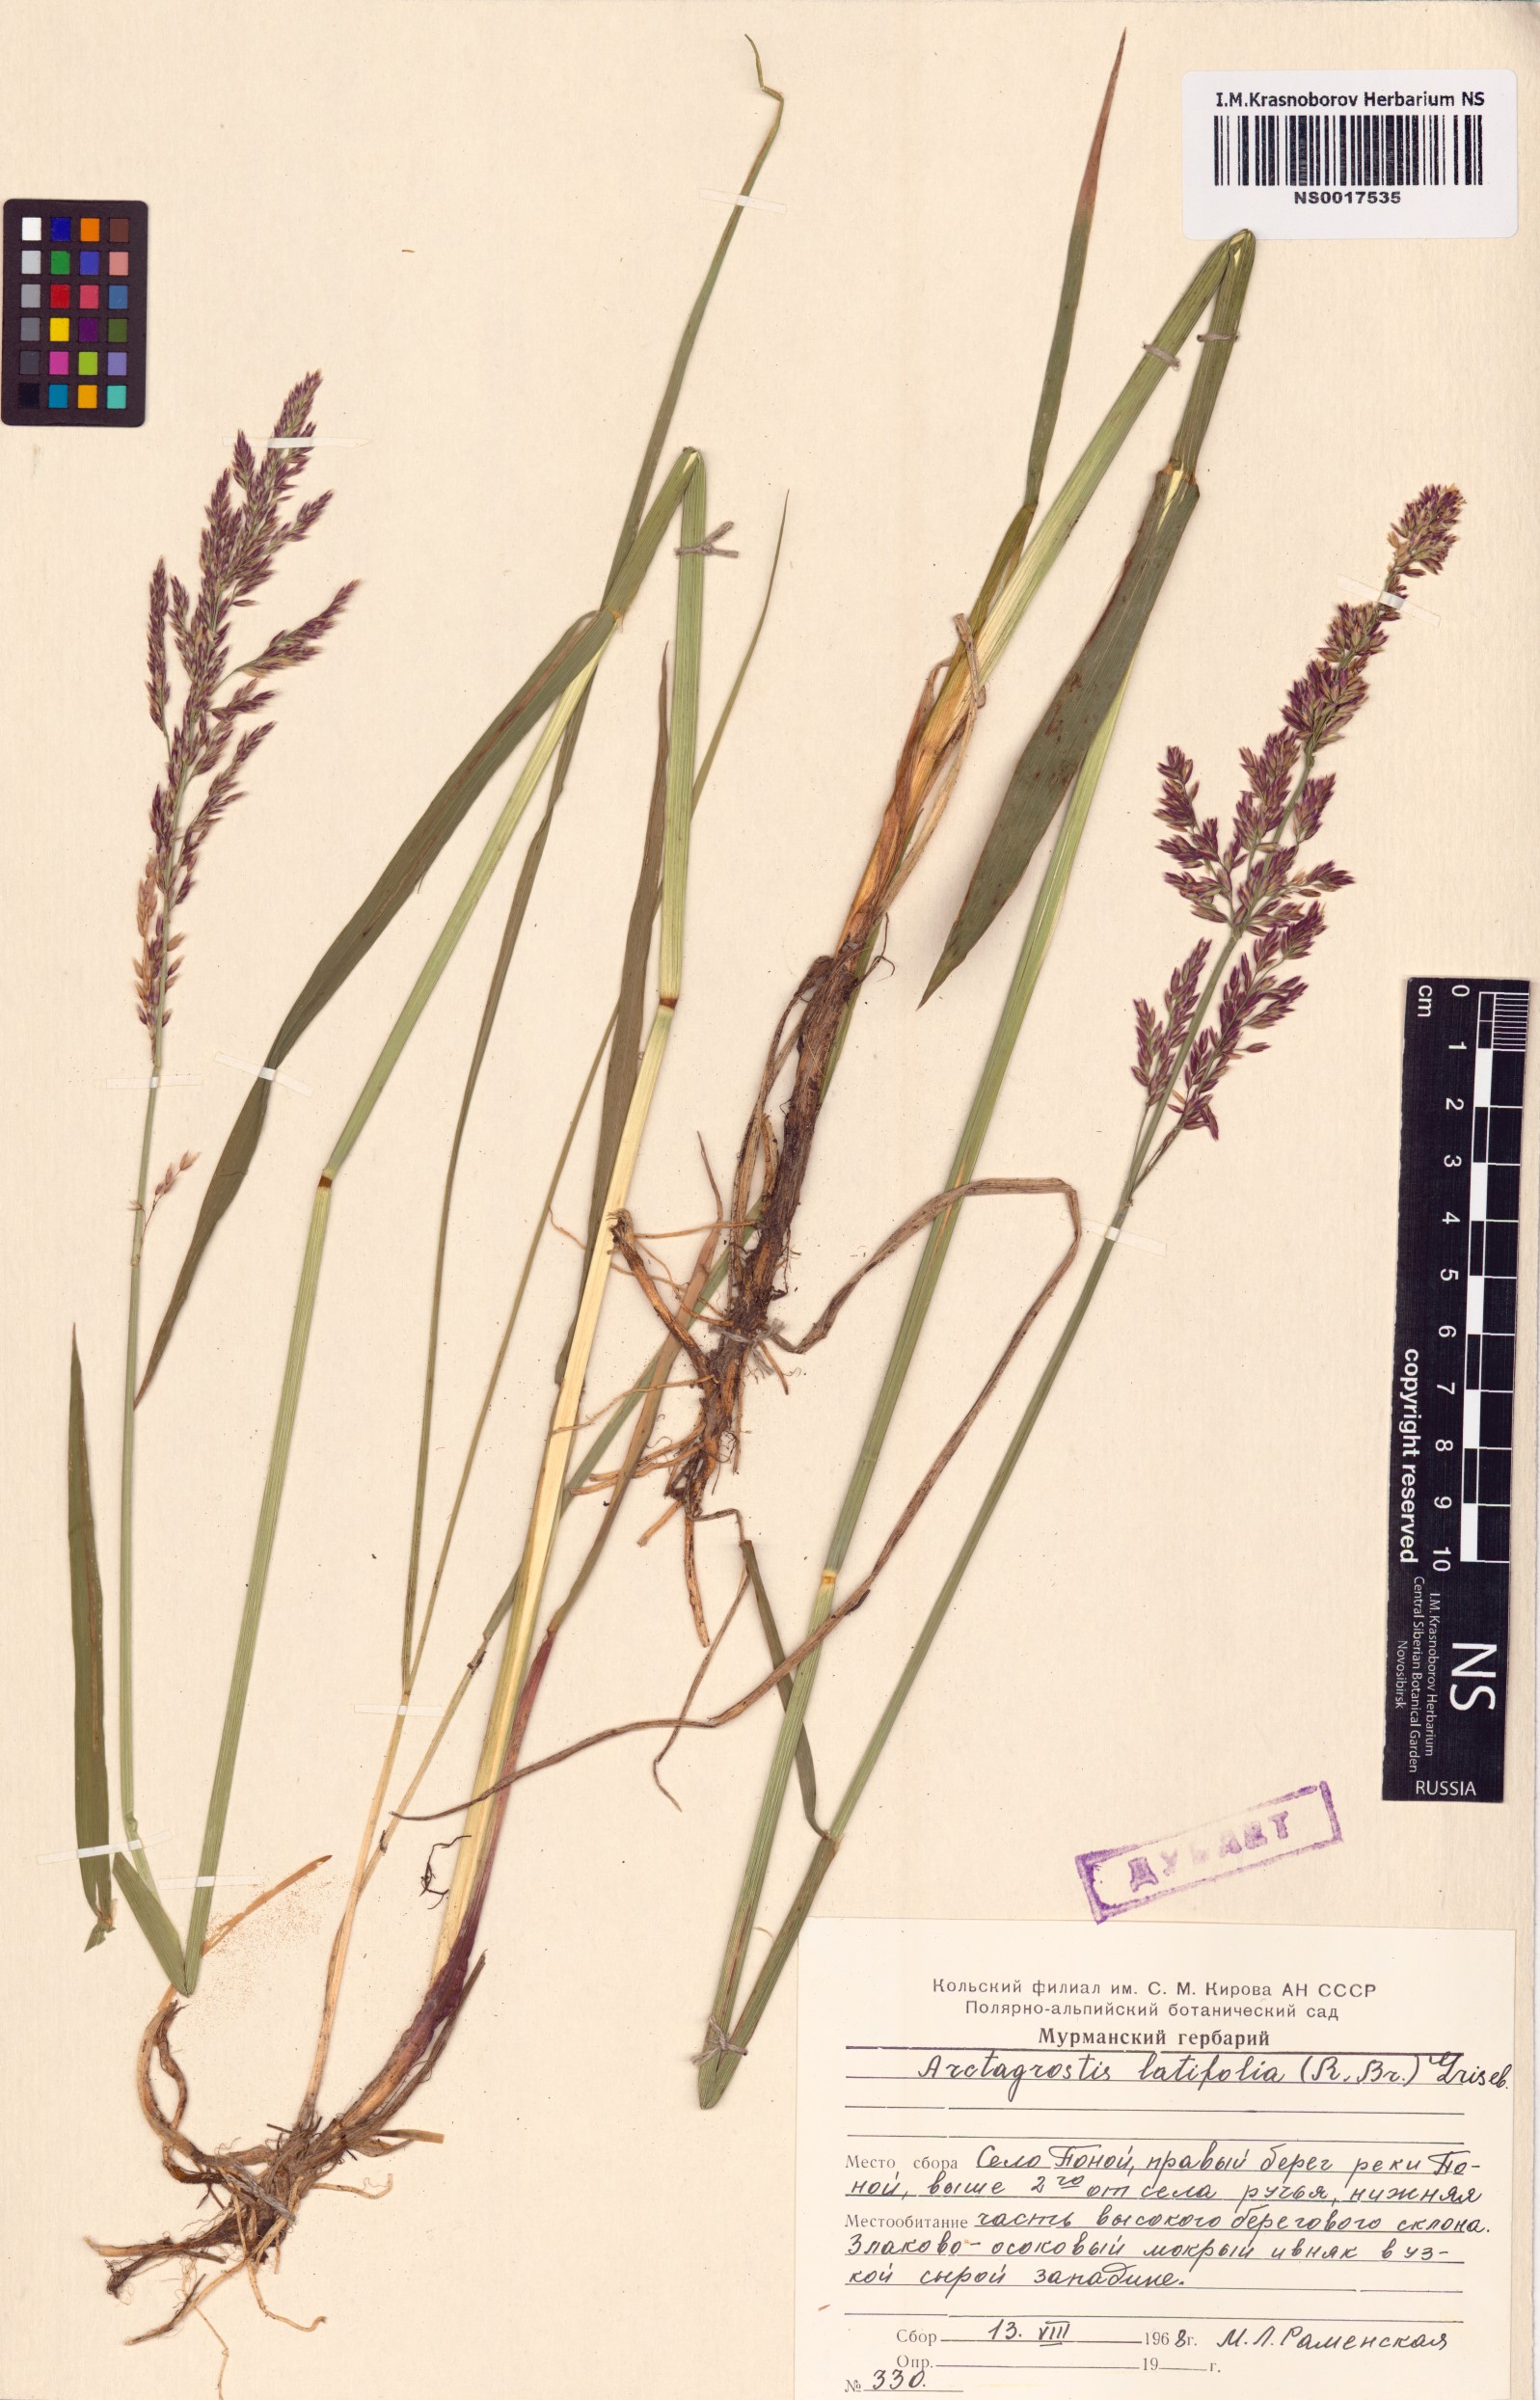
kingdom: Plantae
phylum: Tracheophyta
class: Liliopsida
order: Poales
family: Poaceae
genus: Arctagrostis
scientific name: Arctagrostis latifolia
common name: Arctic grass
